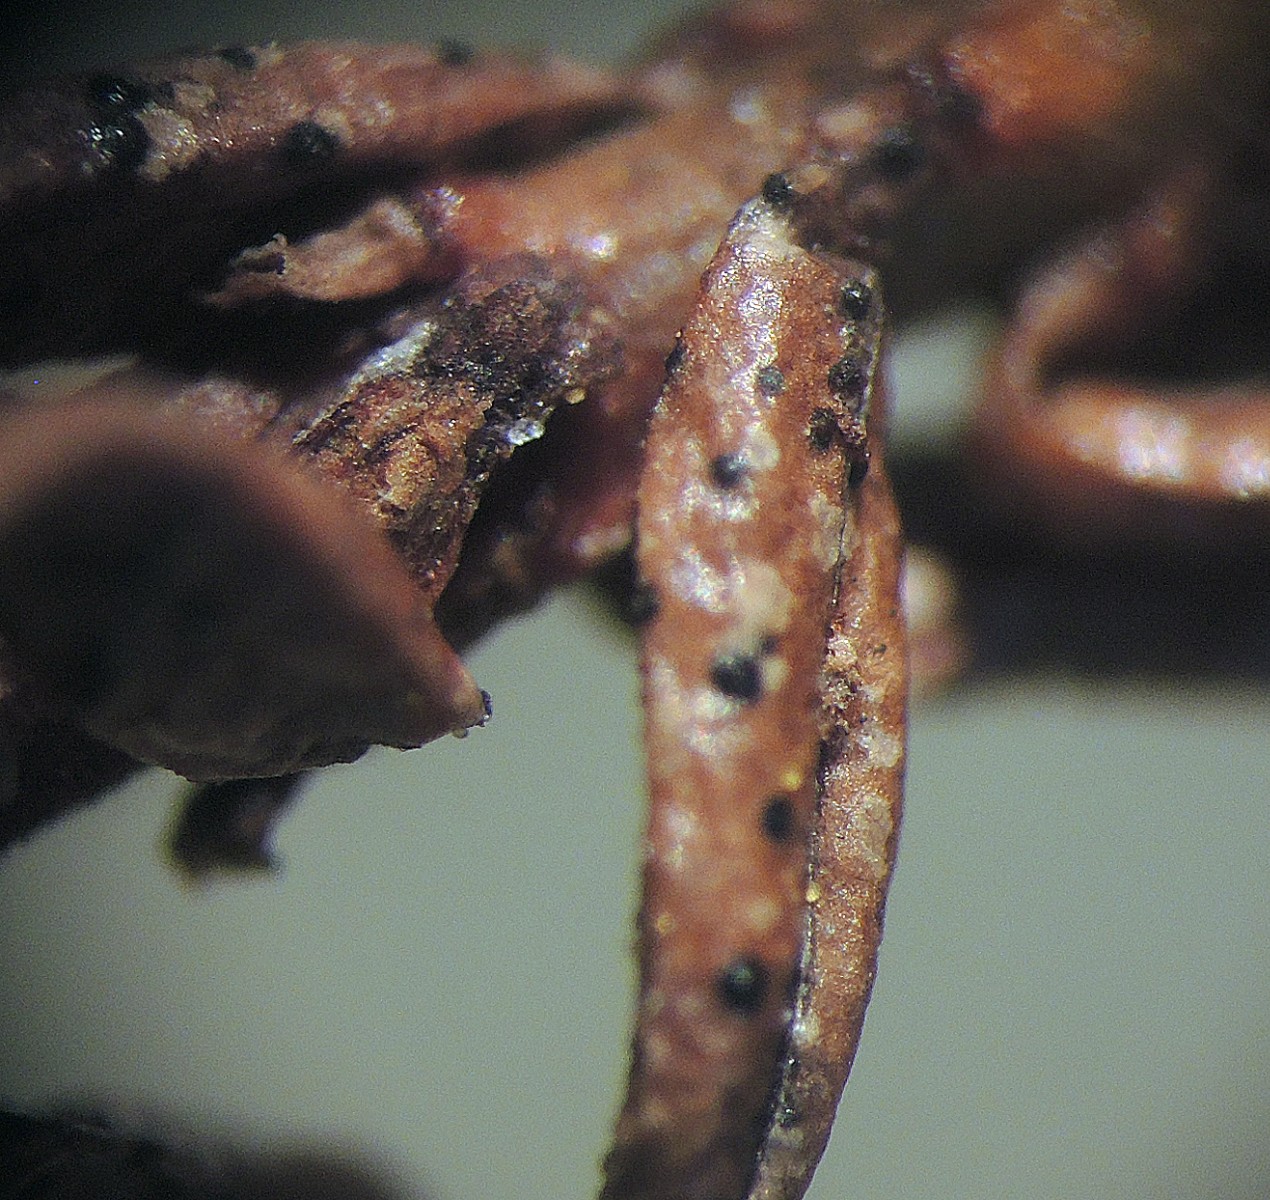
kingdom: Fungi
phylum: Ascomycota
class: Leotiomycetes
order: Helotiales
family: Dermateaceae
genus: Coleophoma
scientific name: Coleophoma rhododendri
